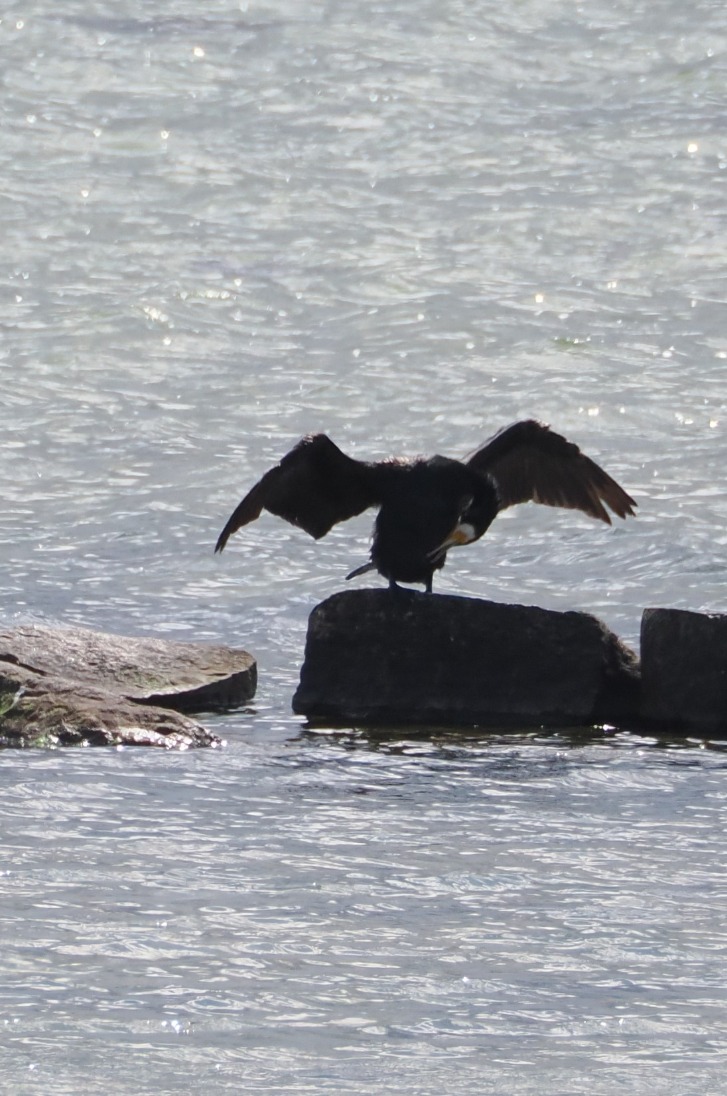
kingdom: Animalia
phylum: Chordata
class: Aves
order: Suliformes
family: Phalacrocoracidae
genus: Phalacrocorax
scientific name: Phalacrocorax carbo
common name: Skarv
